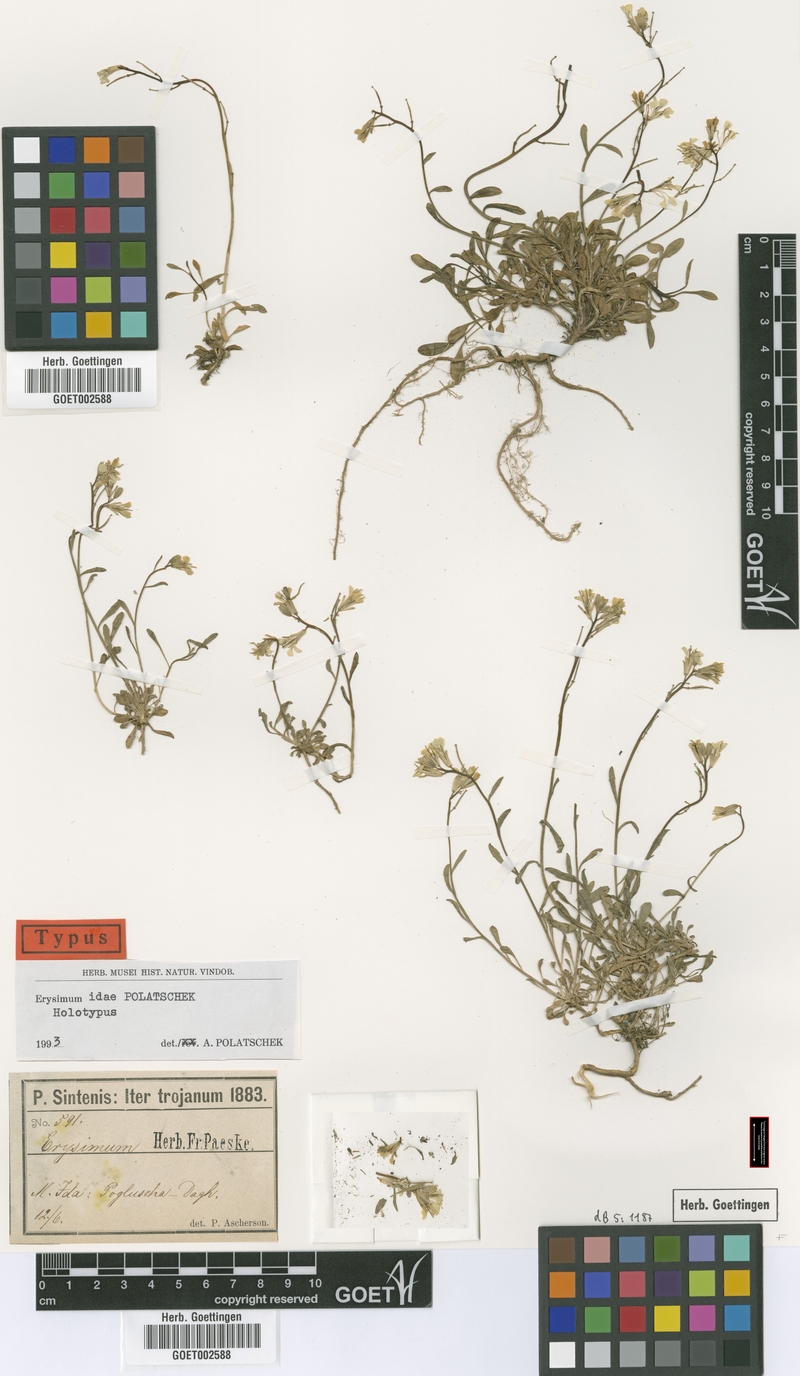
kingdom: Plantae
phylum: Tracheophyta
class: Magnoliopsida
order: Brassicales
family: Brassicaceae
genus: Erysimum
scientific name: Erysimum idae
